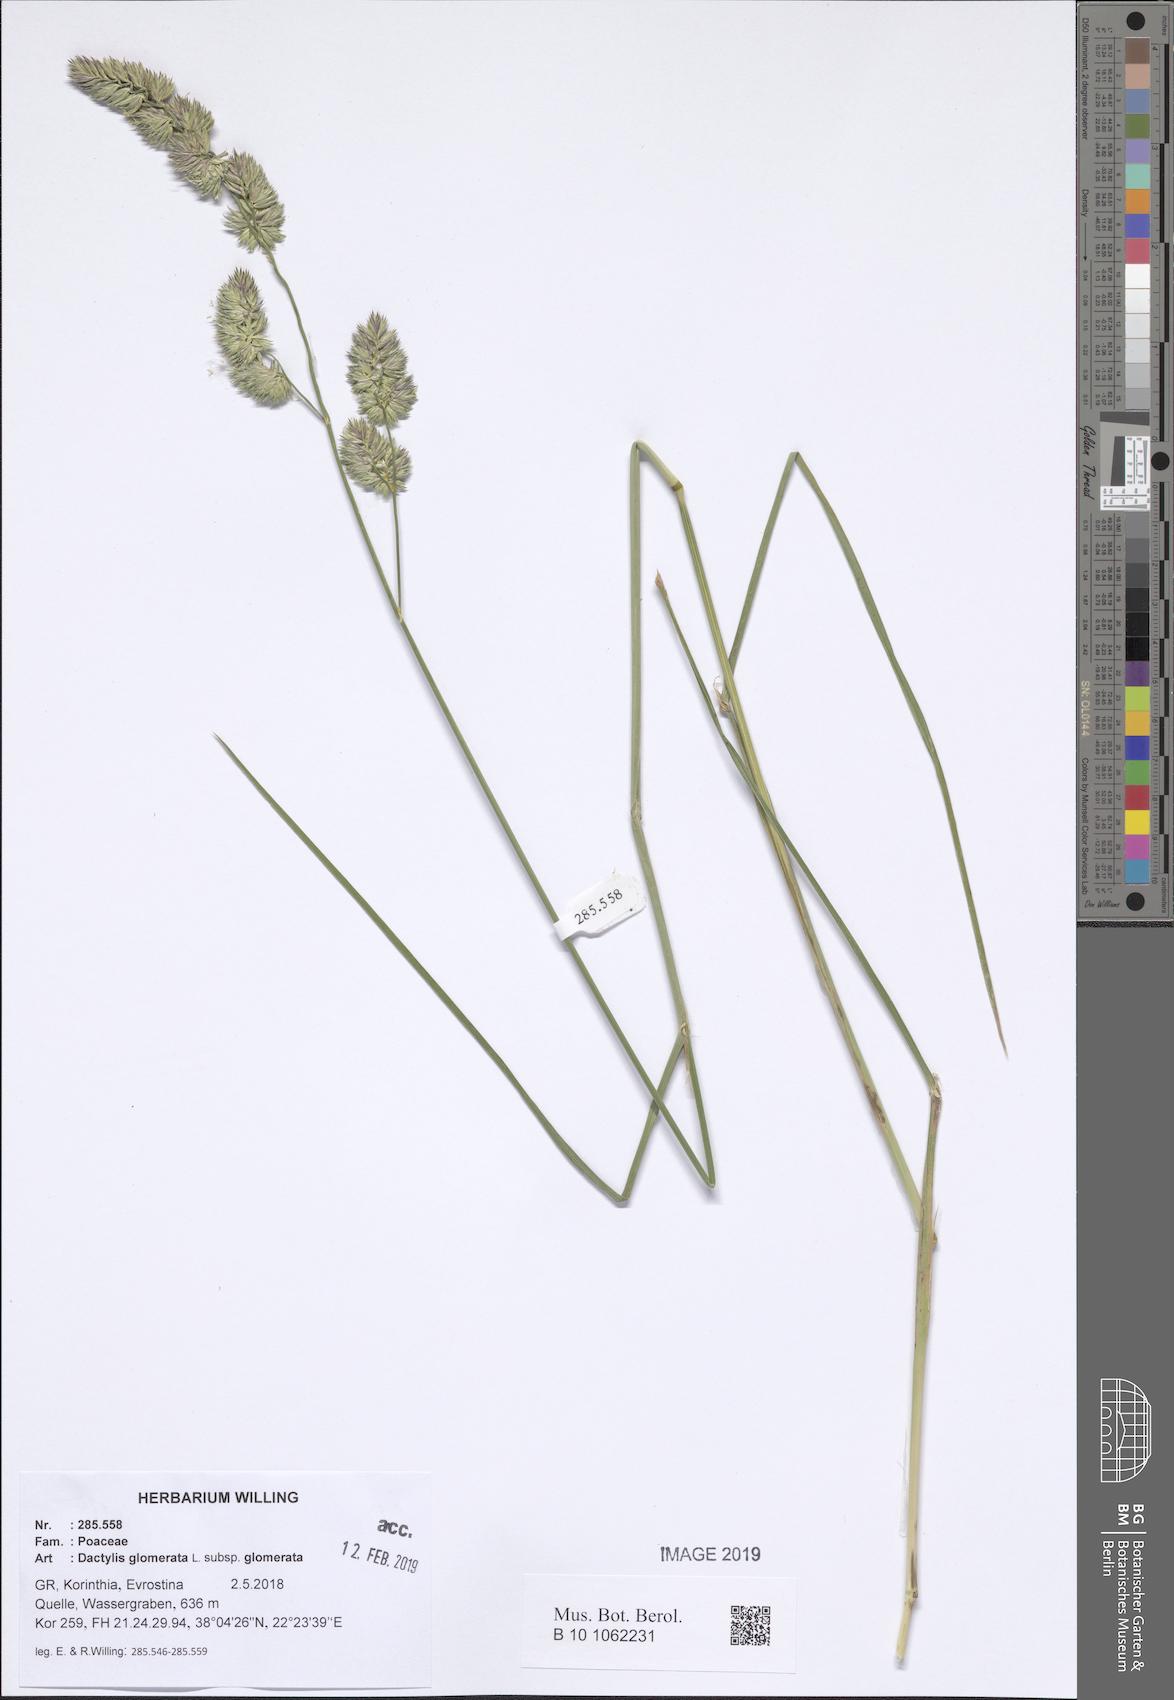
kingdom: Plantae
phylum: Tracheophyta
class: Liliopsida
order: Poales
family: Poaceae
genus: Dactylis
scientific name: Dactylis glomerata
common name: Orchardgrass
